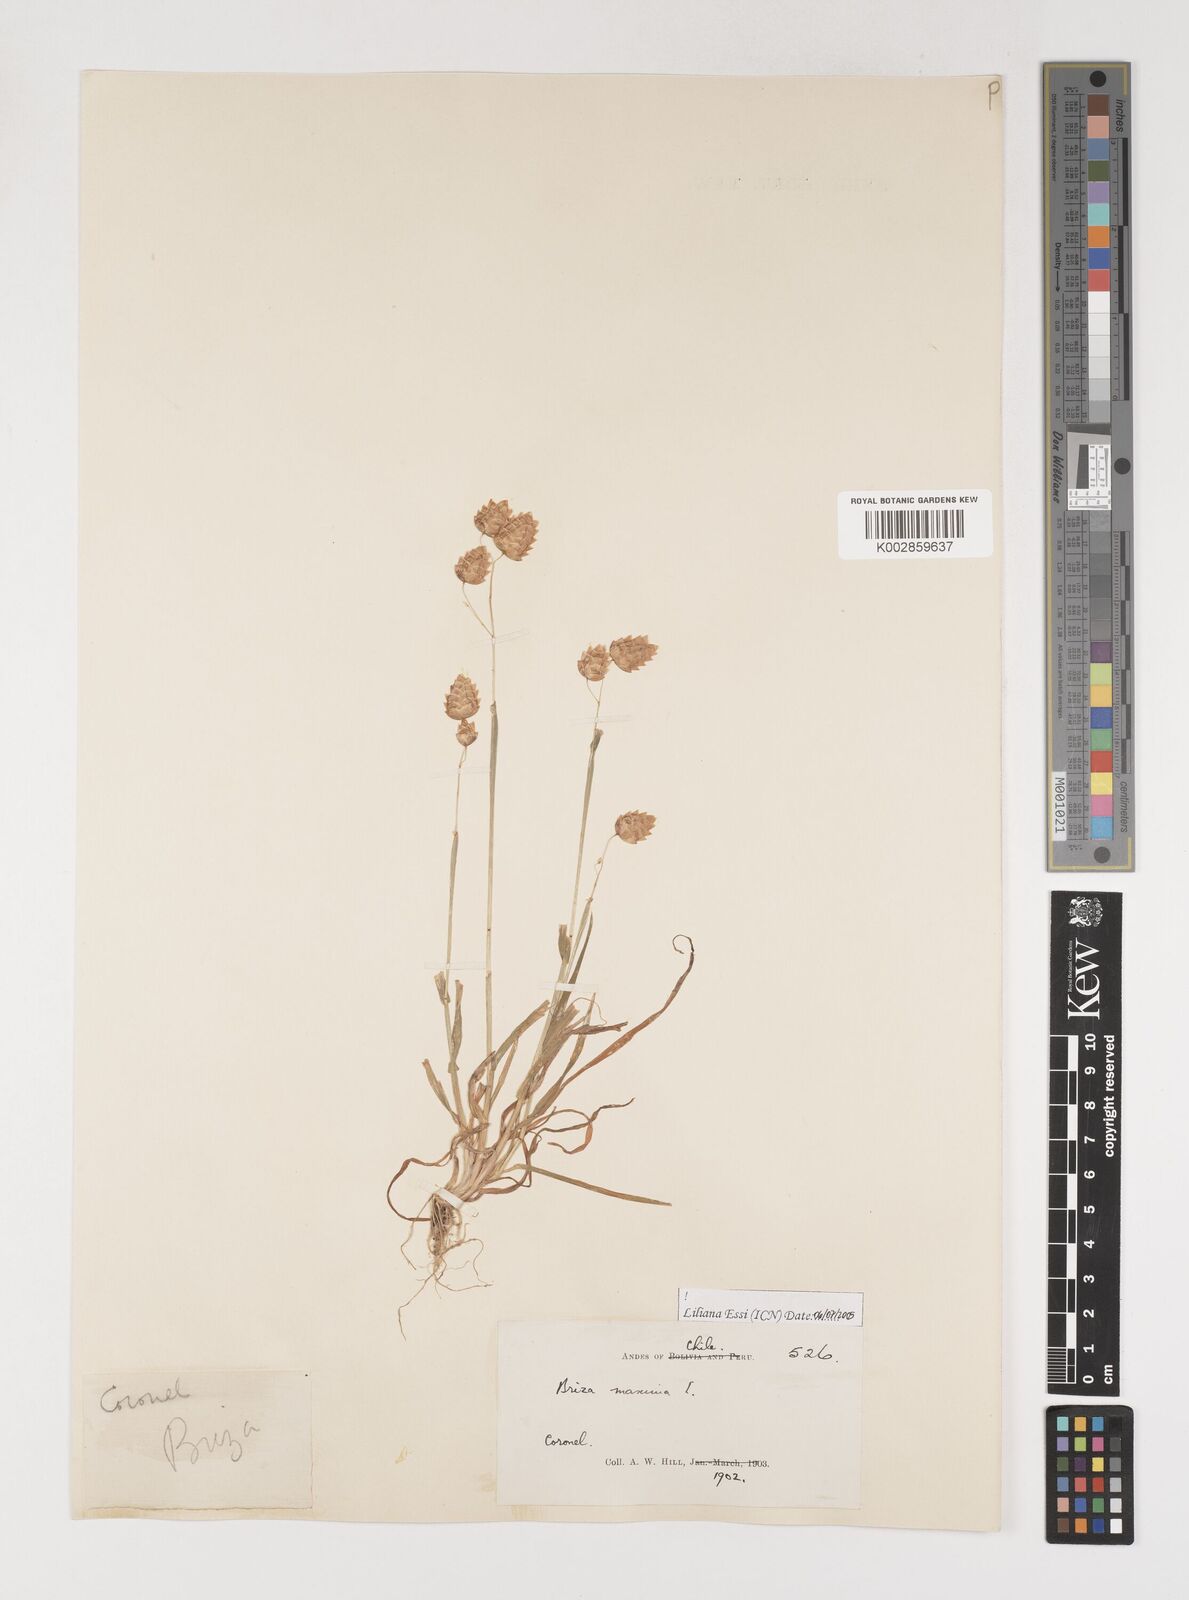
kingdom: Plantae
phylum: Tracheophyta
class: Liliopsida
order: Poales
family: Poaceae
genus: Briza
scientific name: Briza maxima
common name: Big quakinggrass
